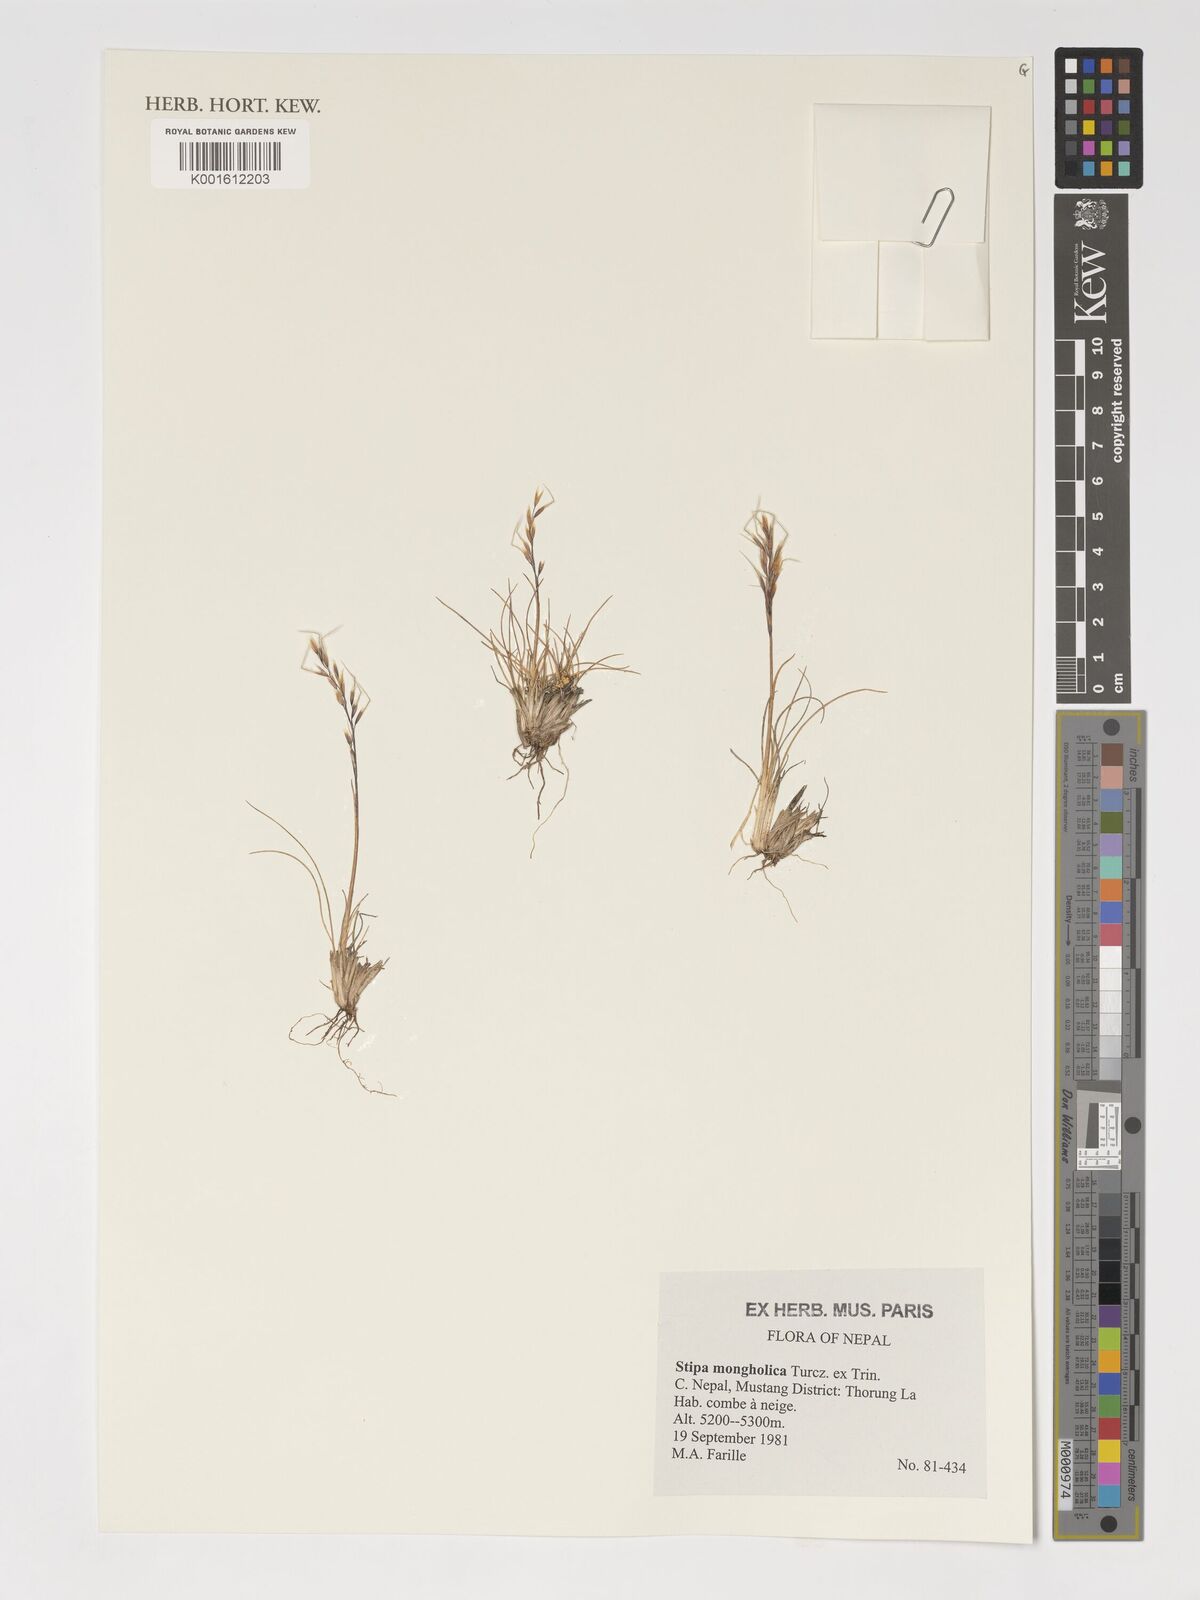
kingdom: Plantae
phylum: Tracheophyta
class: Liliopsida
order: Poales
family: Poaceae
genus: Ptilagrostis
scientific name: Ptilagrostis mongholica
